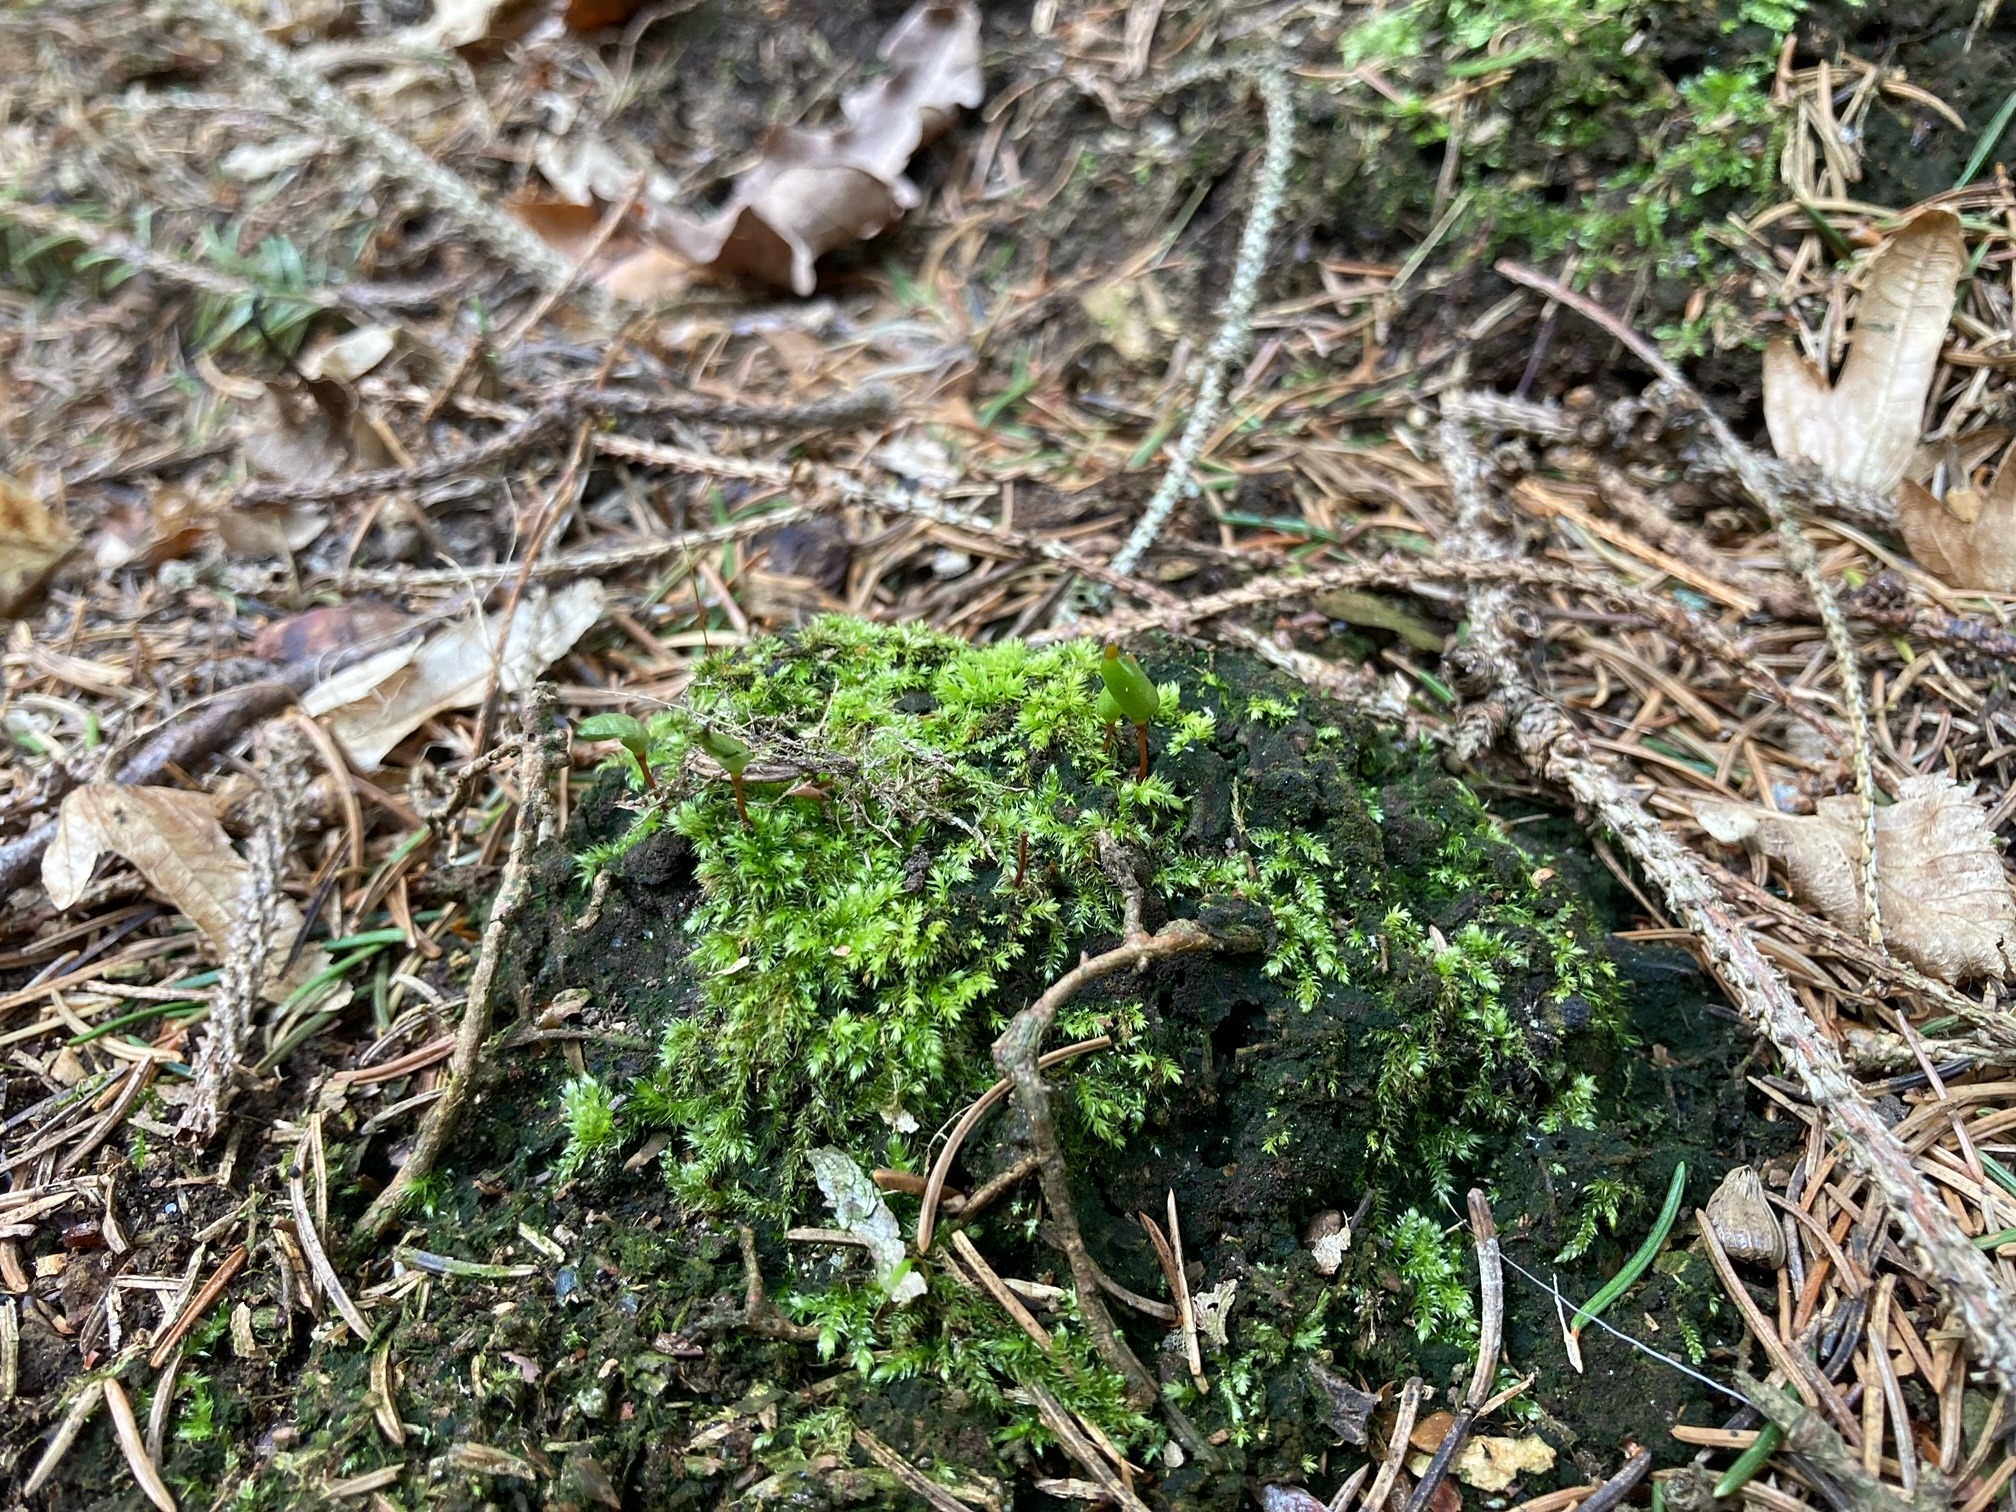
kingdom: Plantae
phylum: Bryophyta
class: Bryopsida
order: Buxbaumiales
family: Buxbaumiaceae
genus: Buxbaumia
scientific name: Buxbaumia viridis
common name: Grøn buxbaumia
